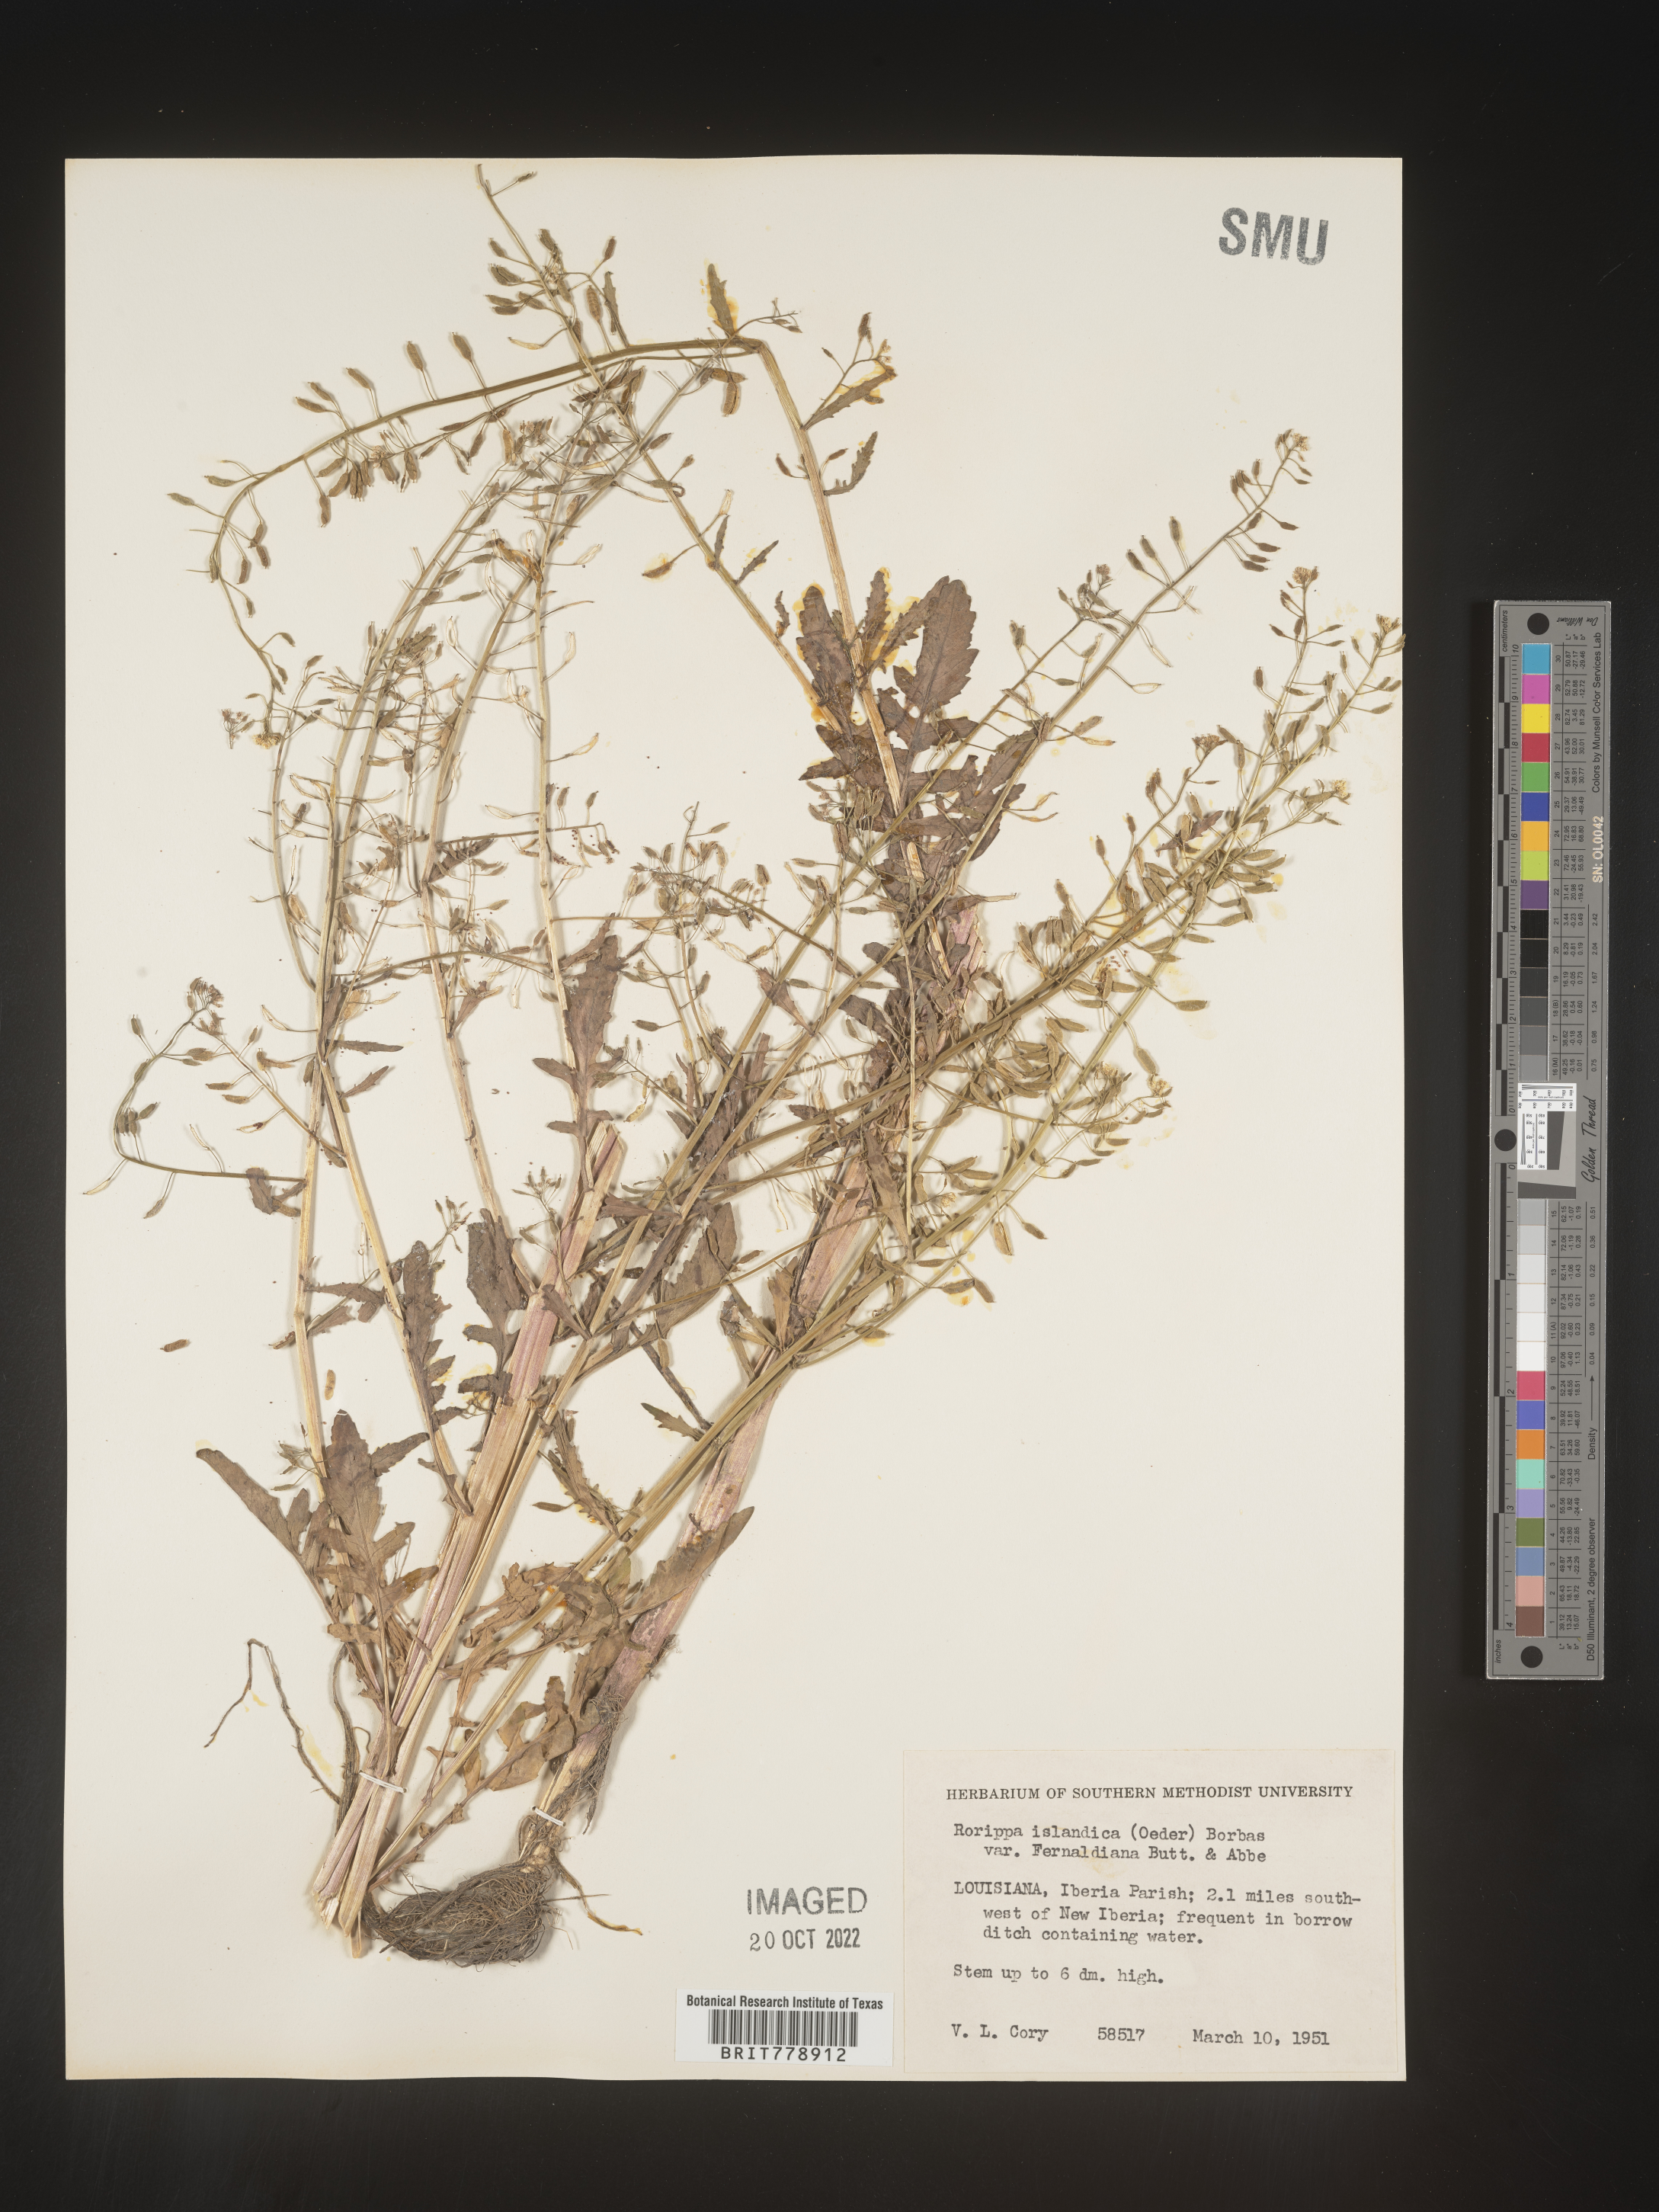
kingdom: Plantae
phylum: Tracheophyta
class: Magnoliopsida
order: Brassicales
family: Brassicaceae
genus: Rorippa
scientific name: Rorippa palustris
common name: Marsh yellow-cress
